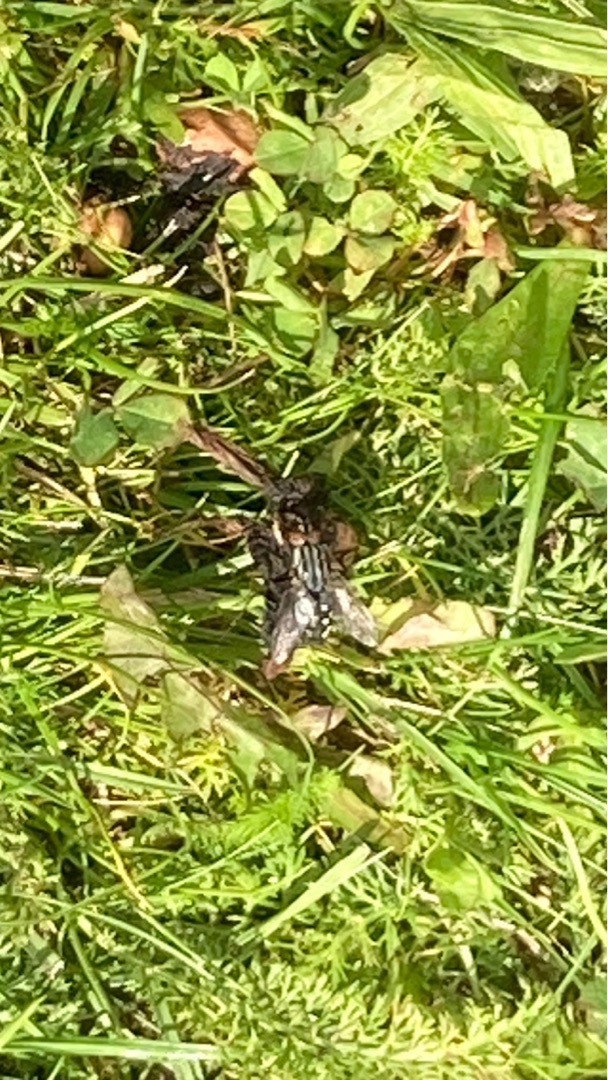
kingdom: Animalia
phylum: Arthropoda
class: Insecta
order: Diptera
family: Sarcophagidae
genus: Sarcophaga
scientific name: Sarcophaga
